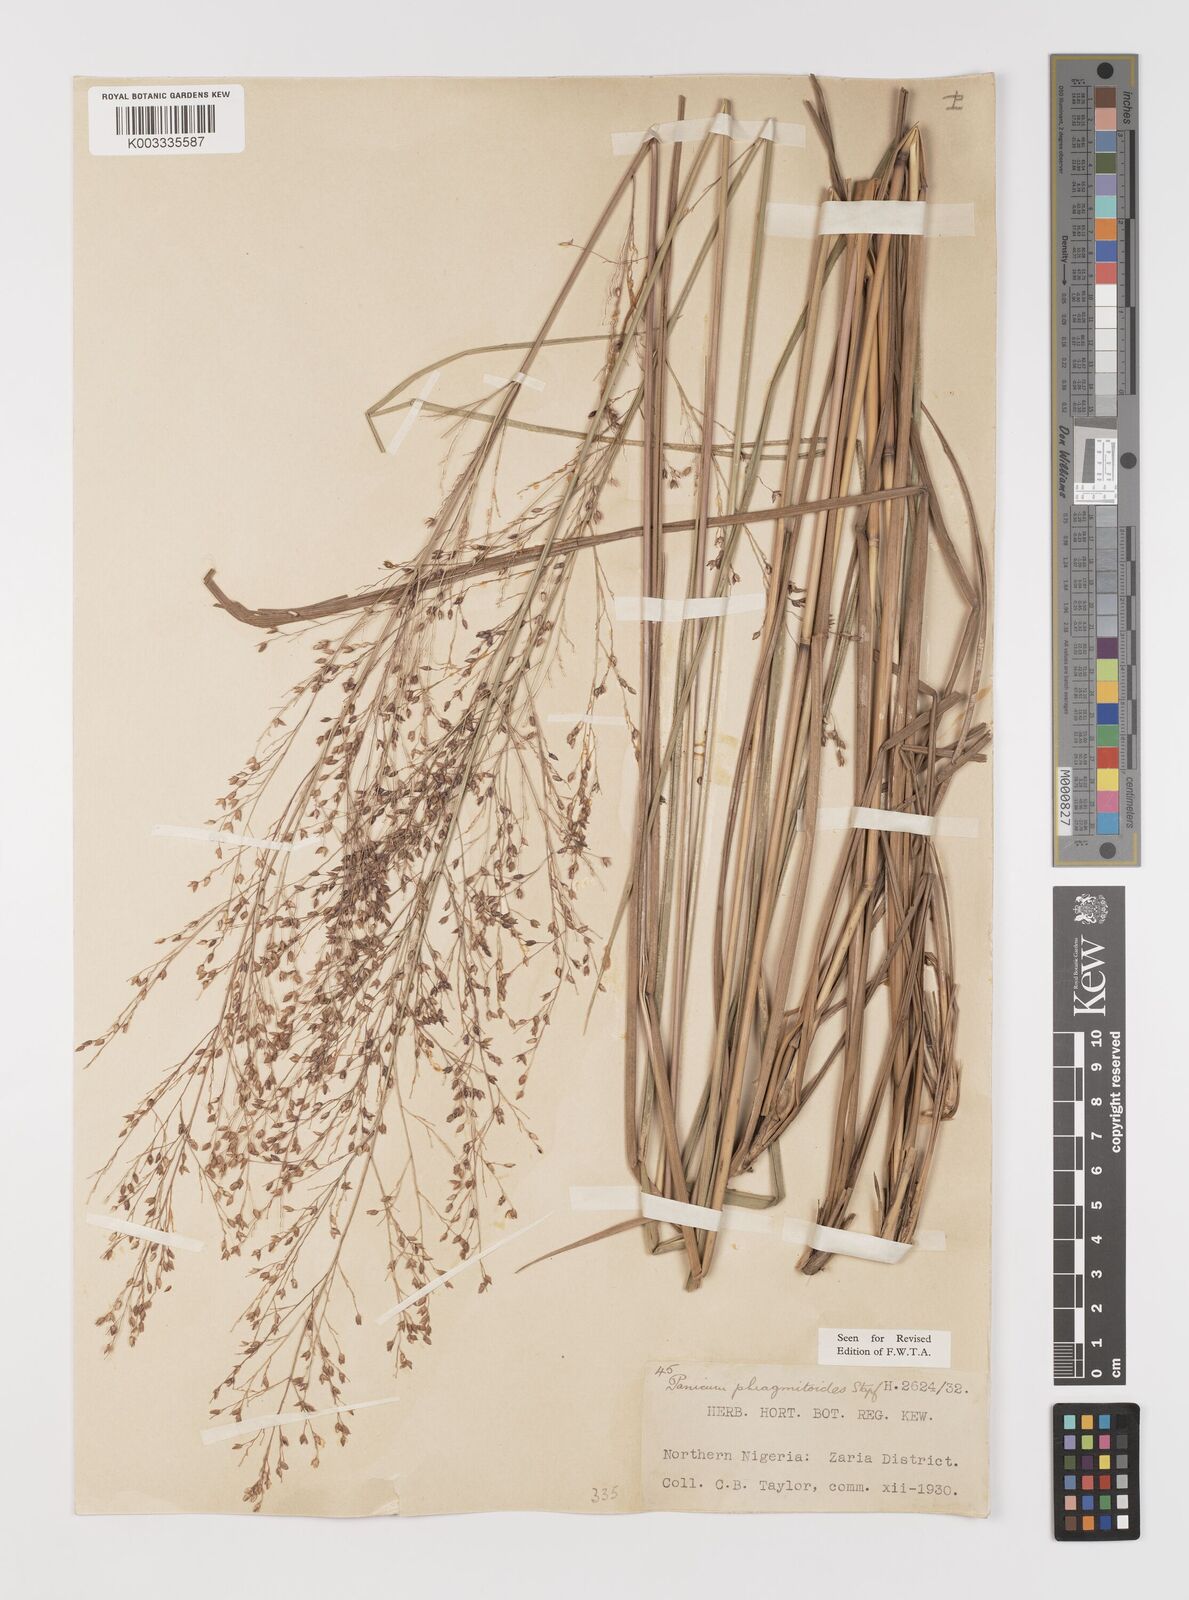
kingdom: Plantae
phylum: Tracheophyta
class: Liliopsida
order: Poales
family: Poaceae
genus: Panicum
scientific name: Panicum phragmitoides
